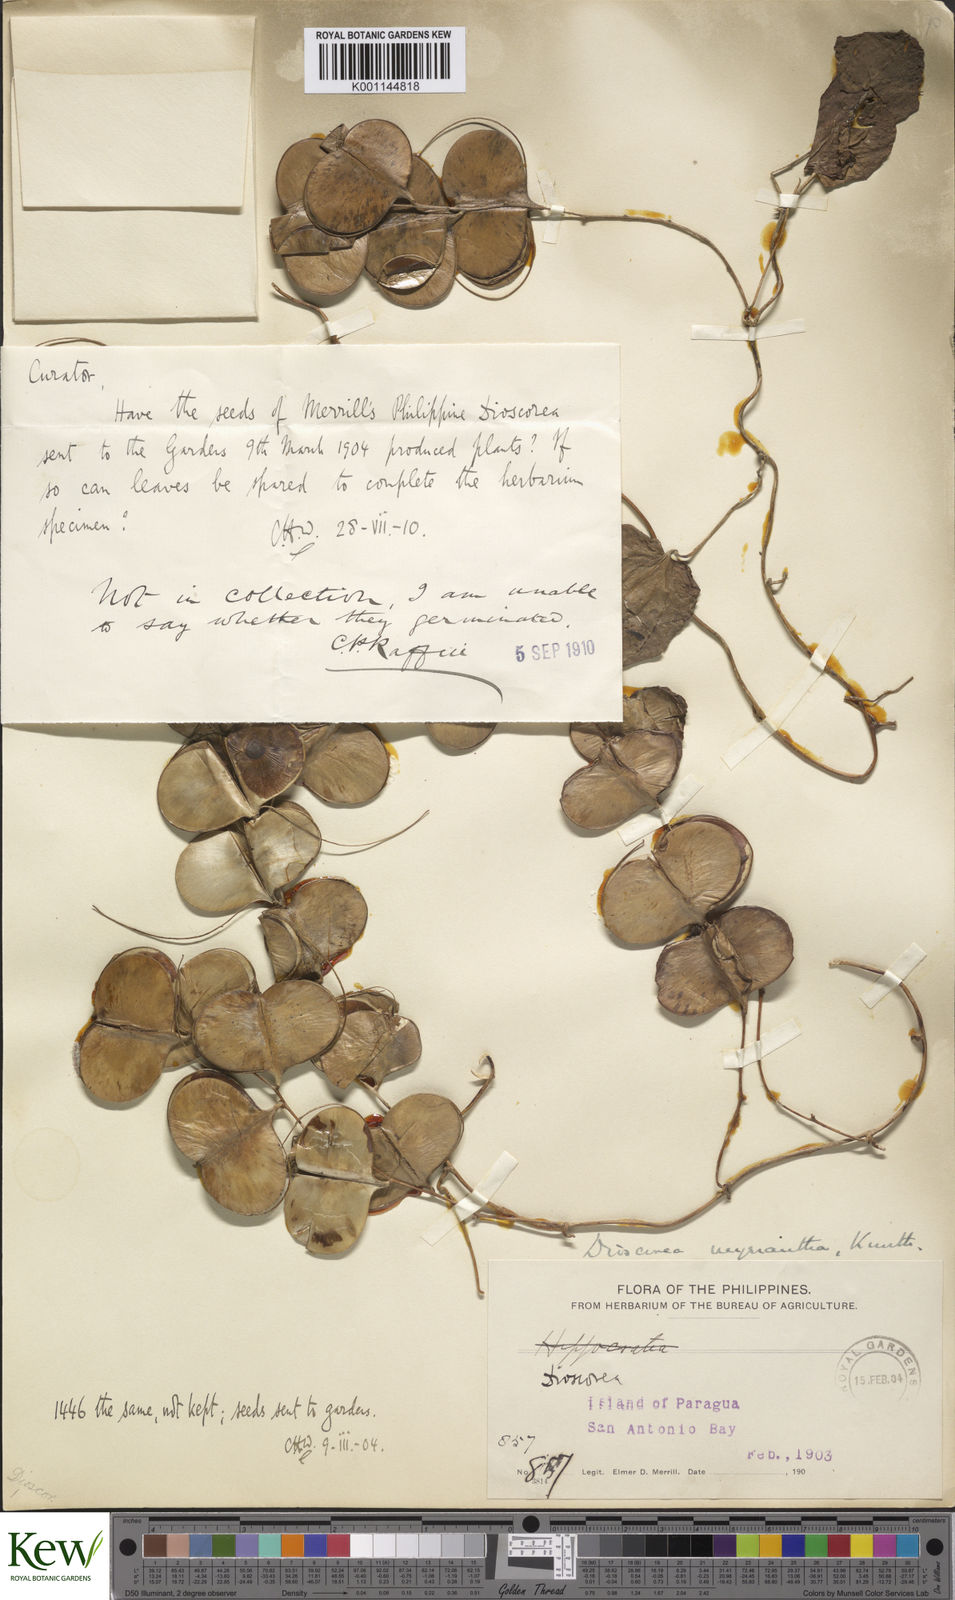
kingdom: Plantae
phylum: Tracheophyta
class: Liliopsida
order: Dioscoreales
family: Dioscoreaceae
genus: Dioscorea
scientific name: Dioscorea filiformis
